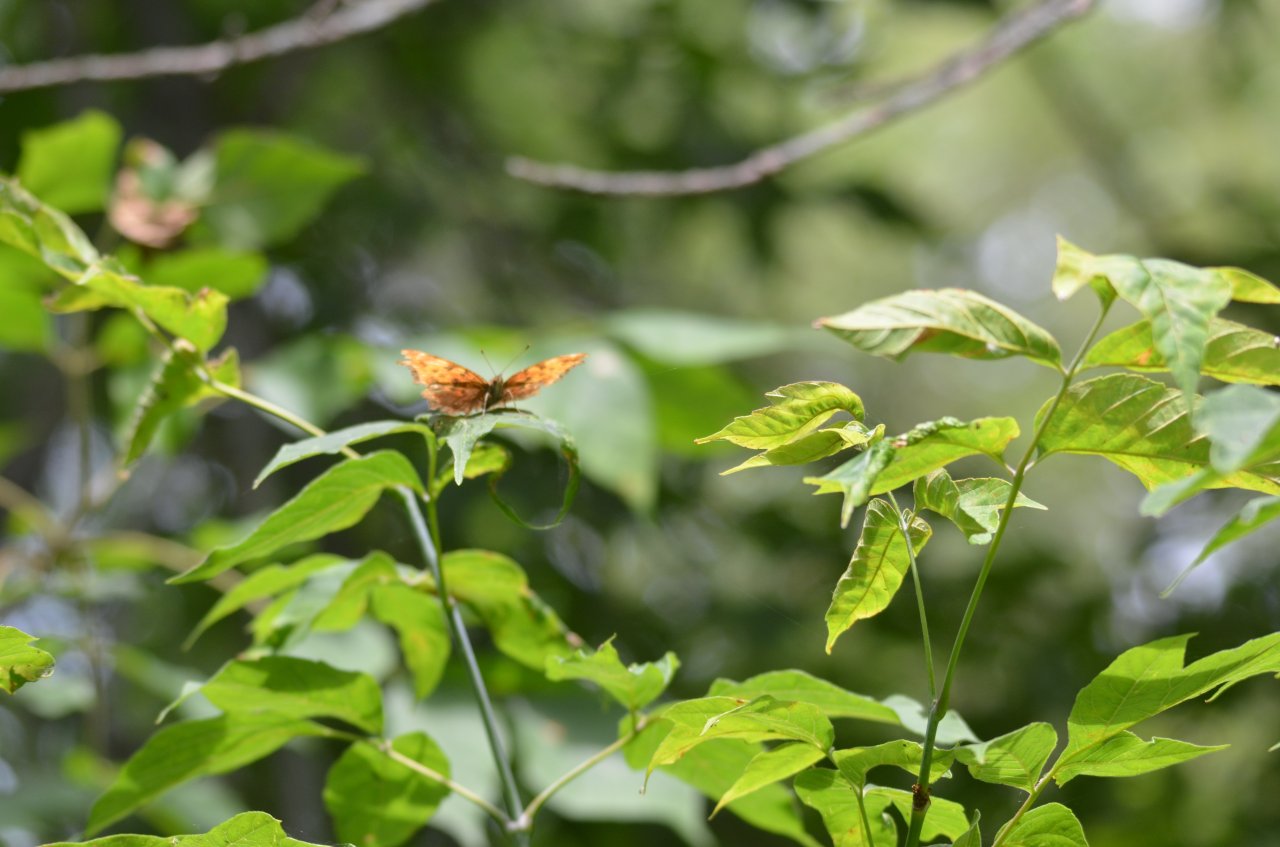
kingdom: Animalia
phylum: Arthropoda
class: Insecta
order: Lepidoptera
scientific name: Lepidoptera
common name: Butterflies
